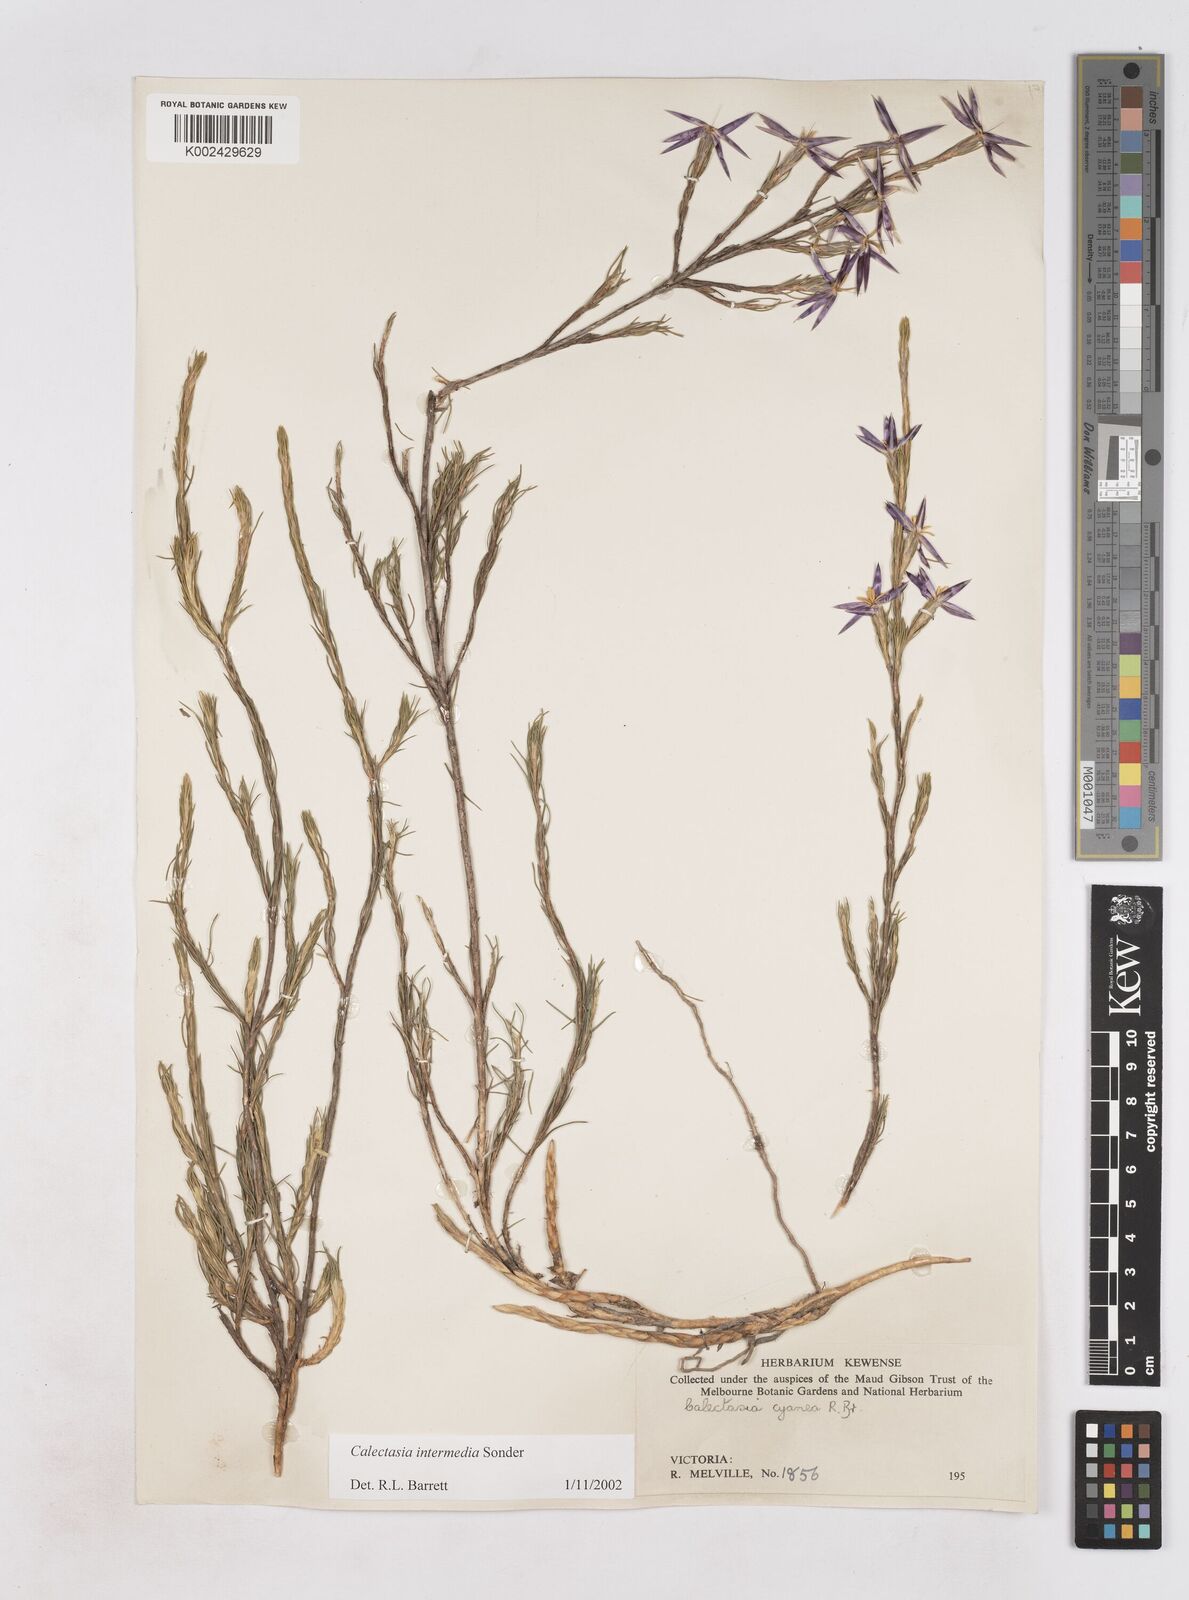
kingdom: Plantae
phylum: Tracheophyta
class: Liliopsida
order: Arecales
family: Dasypogonaceae
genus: Calectasia
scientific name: Calectasia intermedia
